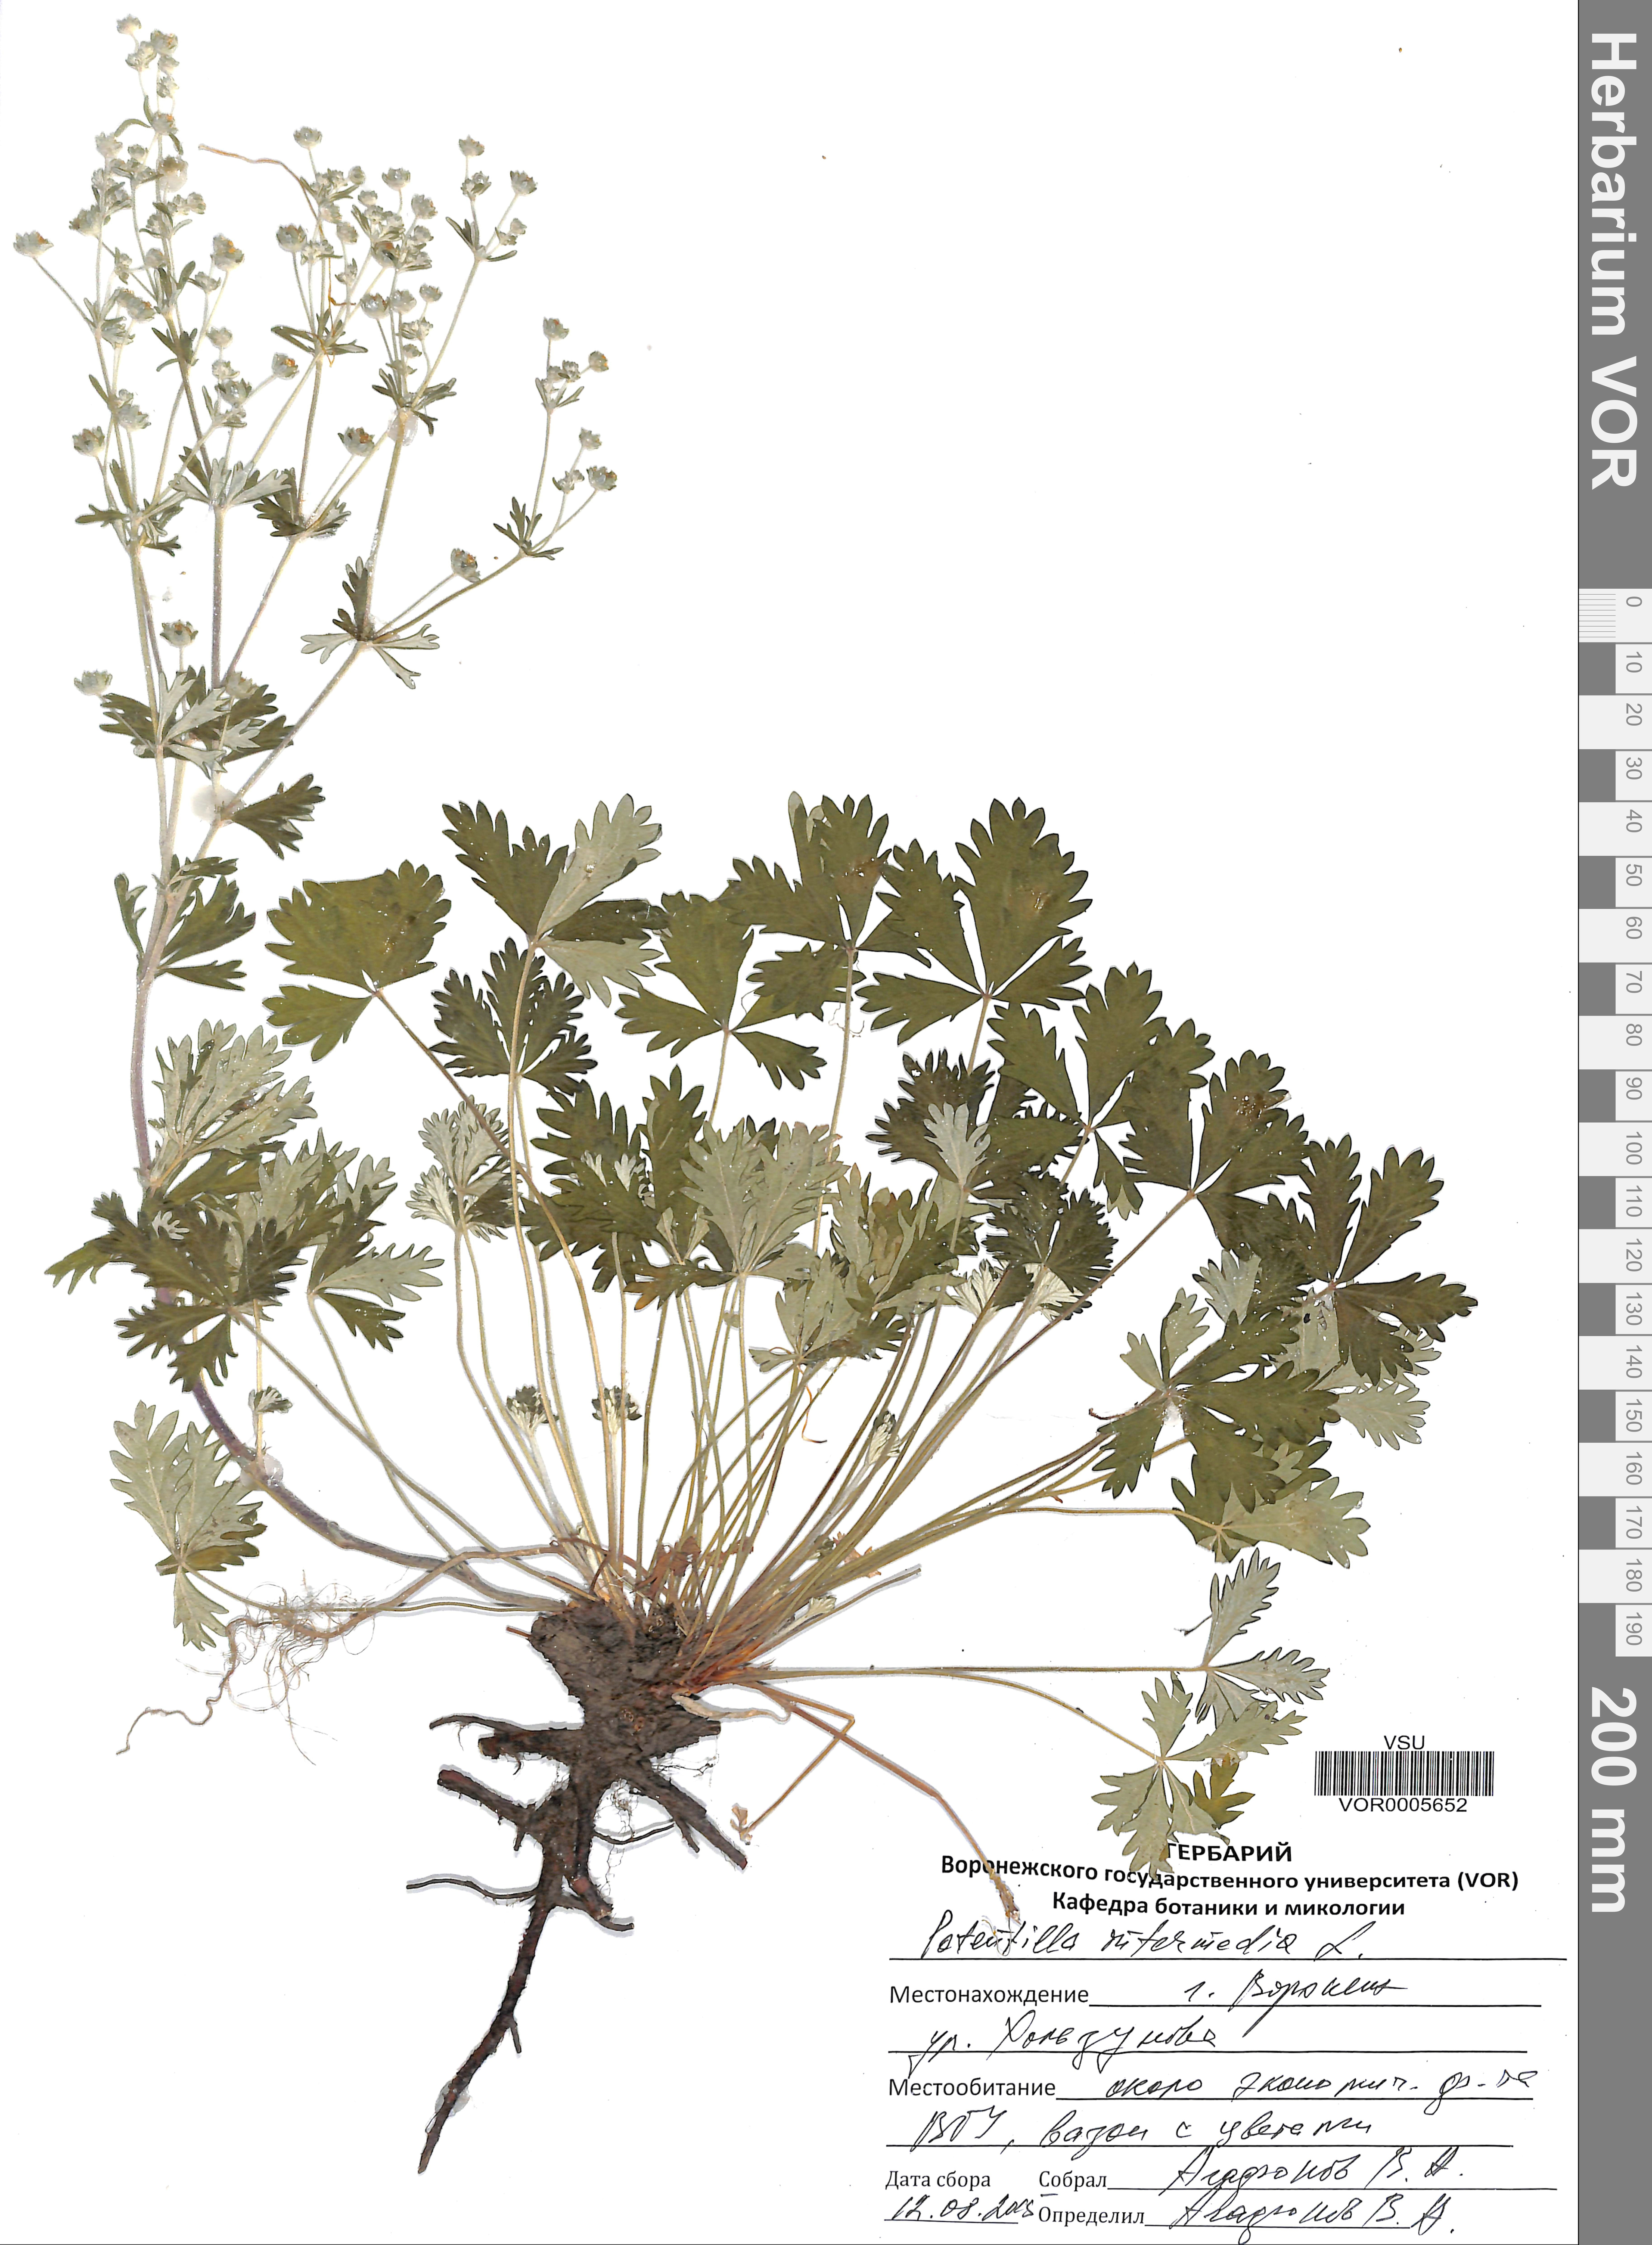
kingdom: Plantae
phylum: Tracheophyta
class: Magnoliopsida
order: Rosales
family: Rosaceae
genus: Potentilla
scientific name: Potentilla argentea
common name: Hoary cinquefoil
